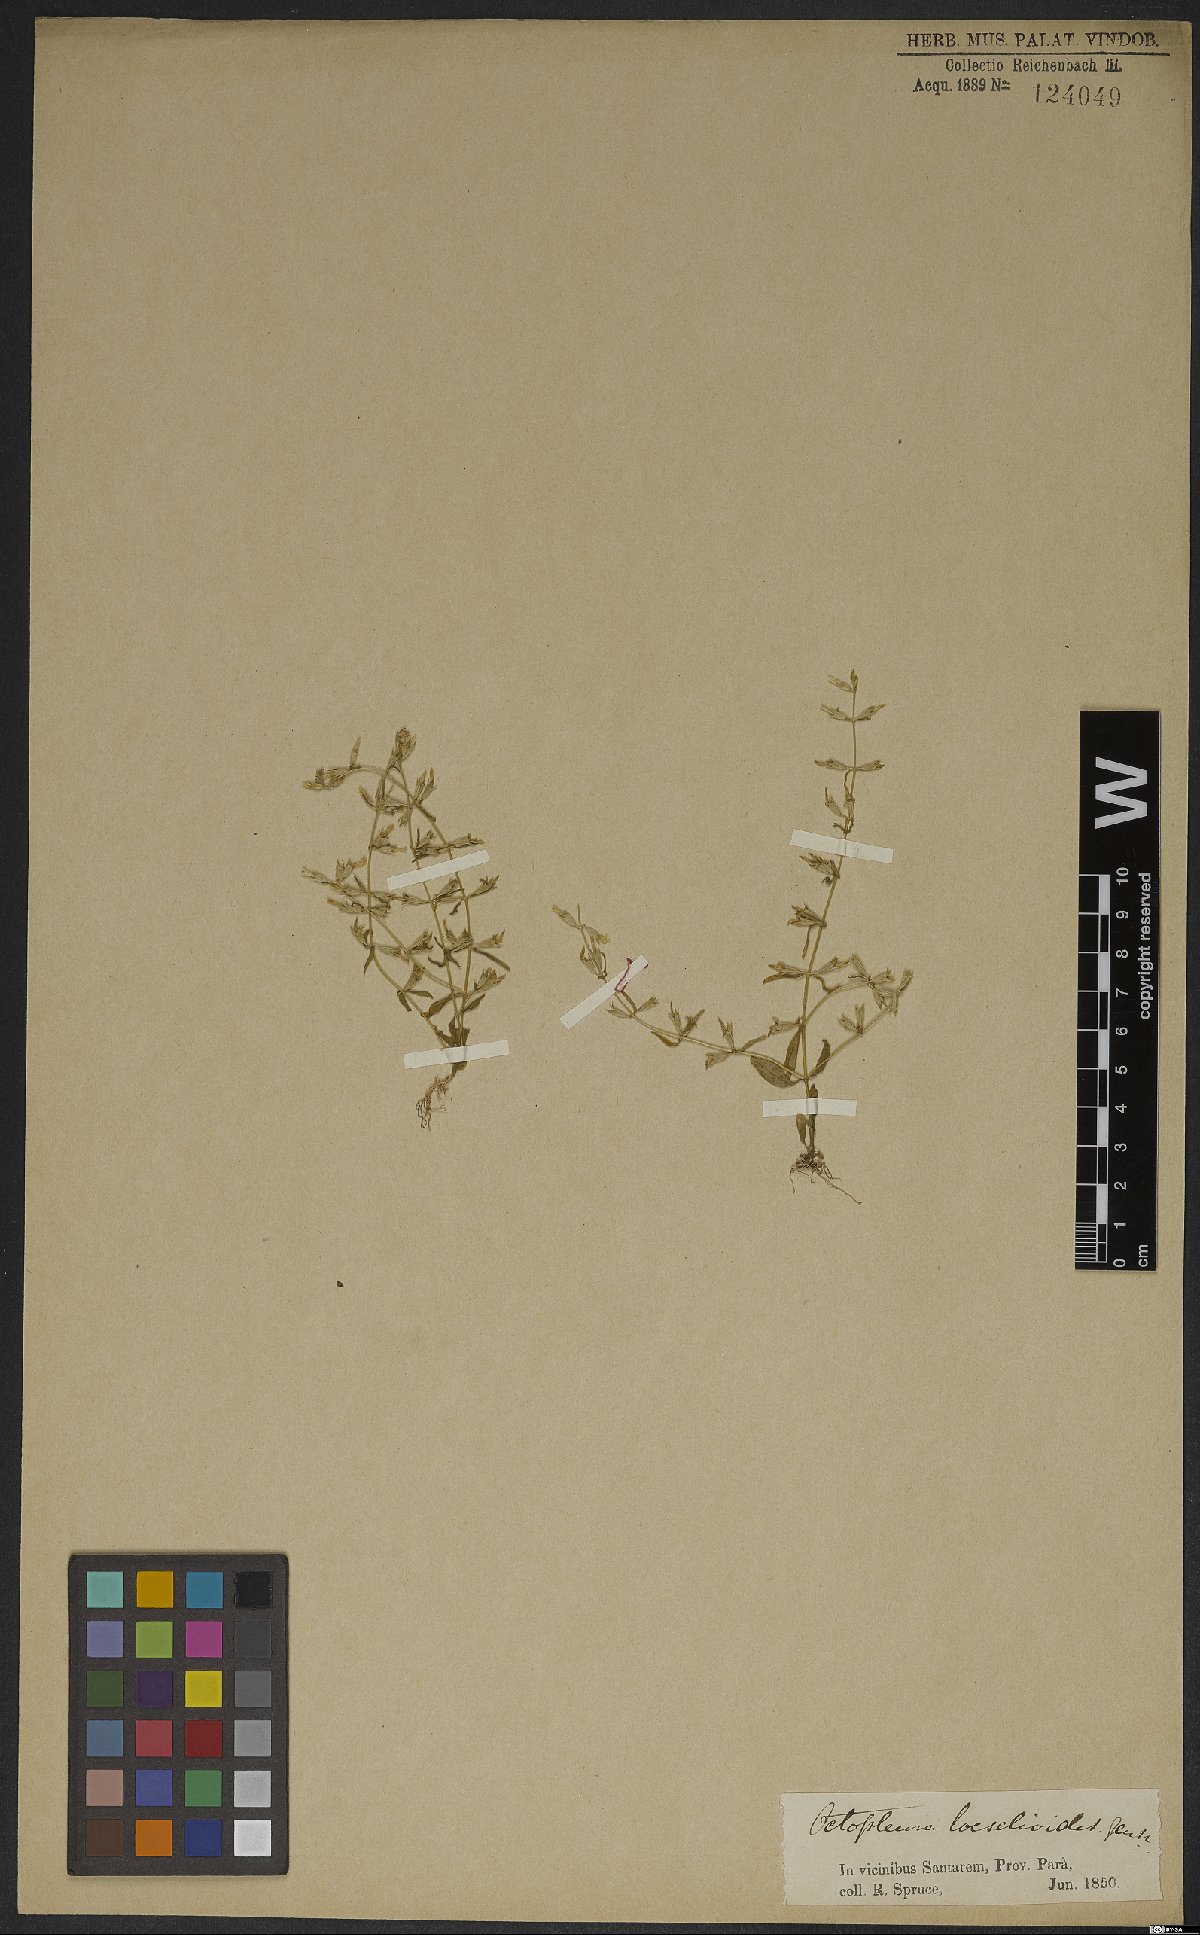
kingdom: Plantae
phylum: Tracheophyta
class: Magnoliopsida
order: Gentianales
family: Gentianaceae
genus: Neurotheca
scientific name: Neurotheca loeselioides
